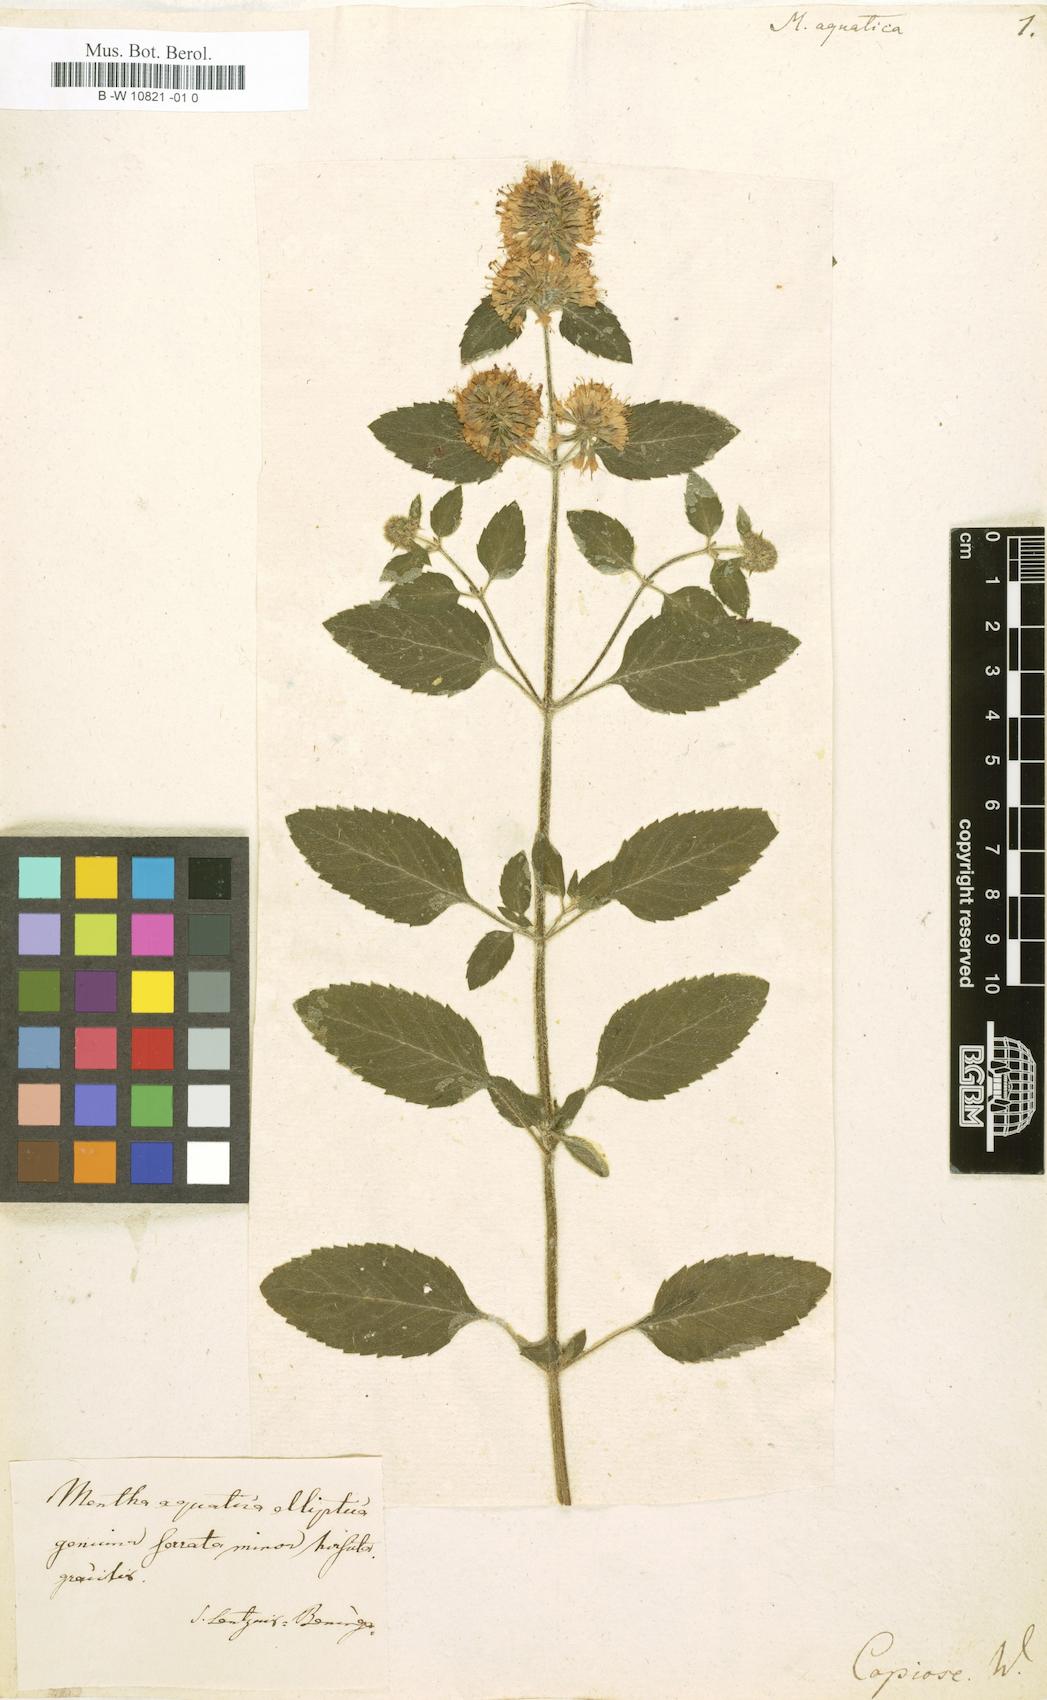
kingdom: Plantae
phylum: Tracheophyta
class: Magnoliopsida
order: Lamiales
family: Lamiaceae
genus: Mentha
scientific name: Mentha aquatica
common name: Water mint
